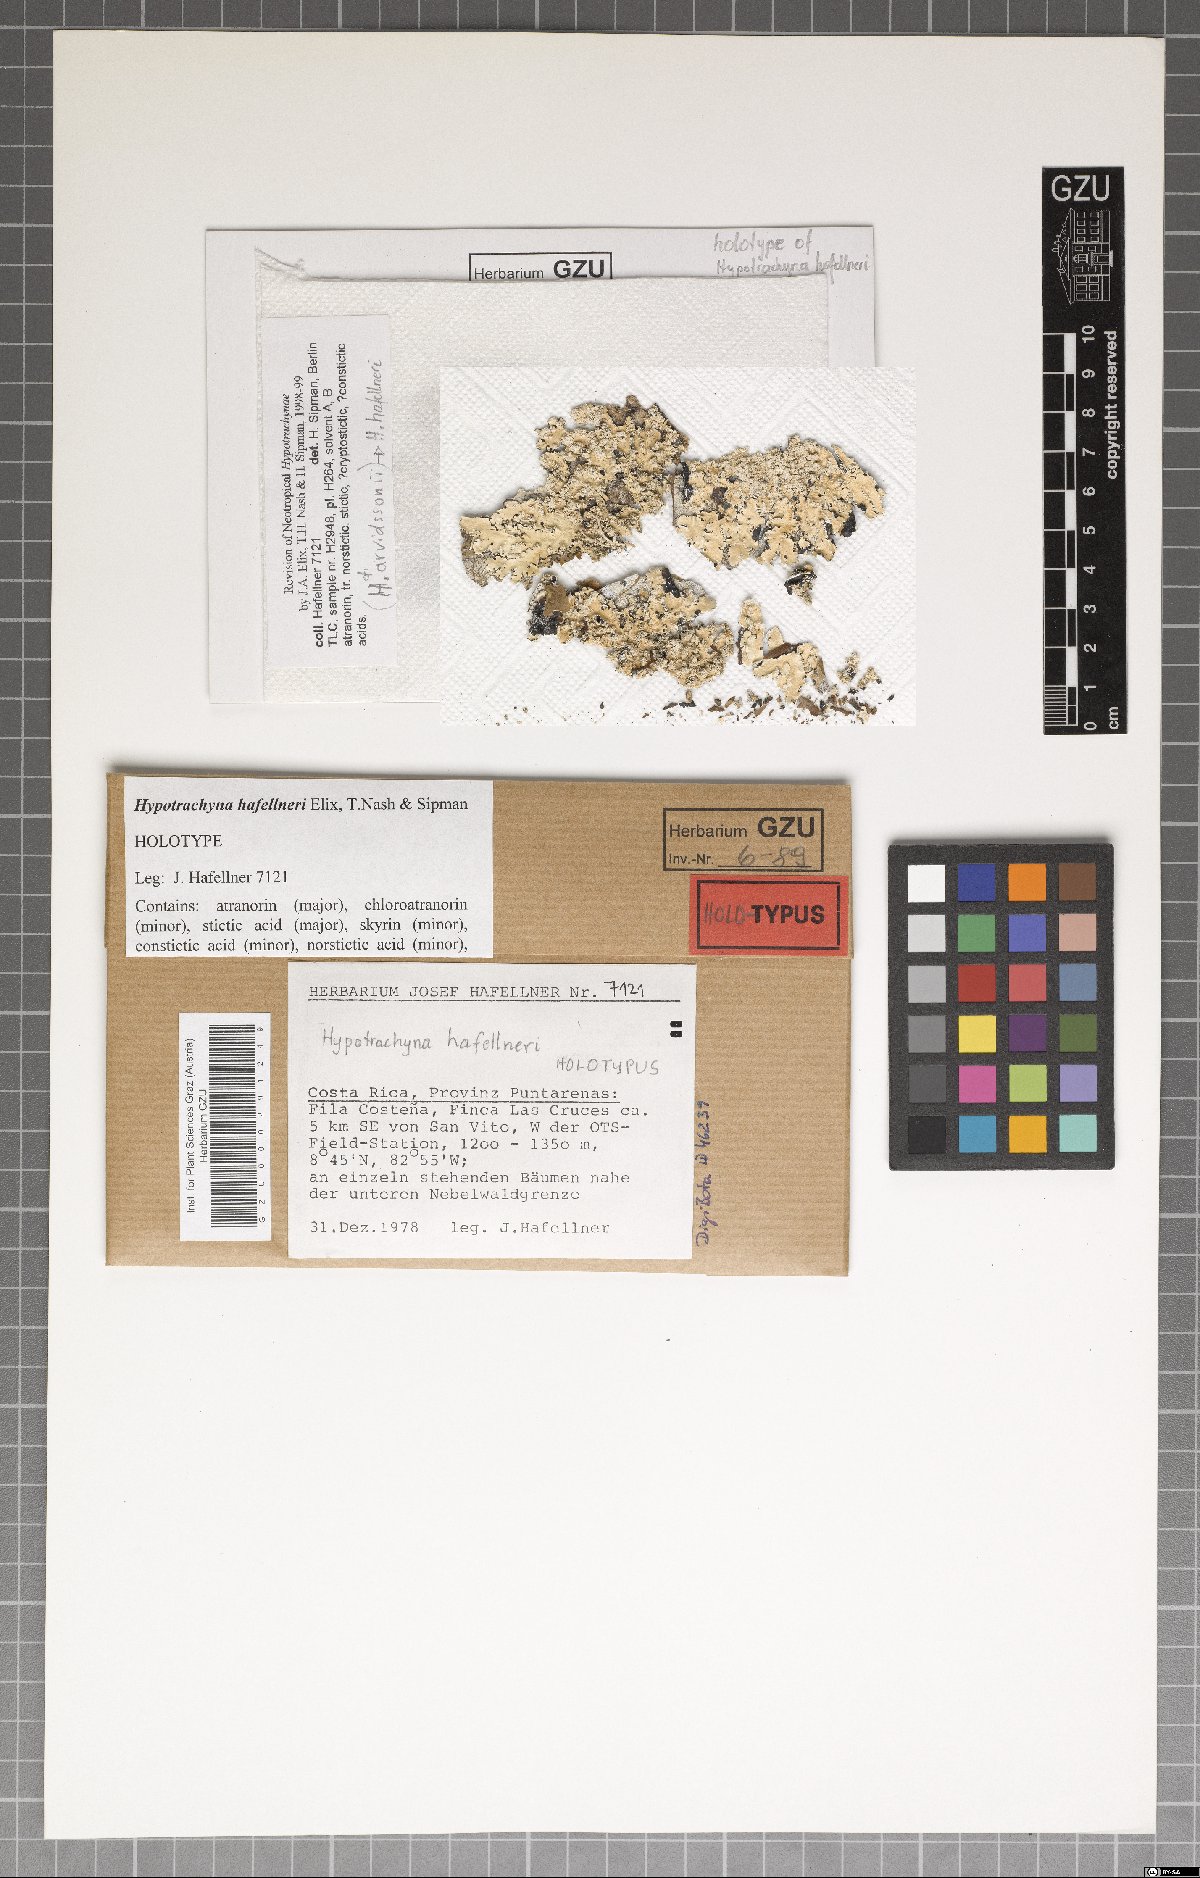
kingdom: Fungi
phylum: Ascomycota
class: Lecanoromycetes
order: Lecanorales
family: Parmeliaceae
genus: Hypotrachyna
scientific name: Hypotrachyna hafellneri
